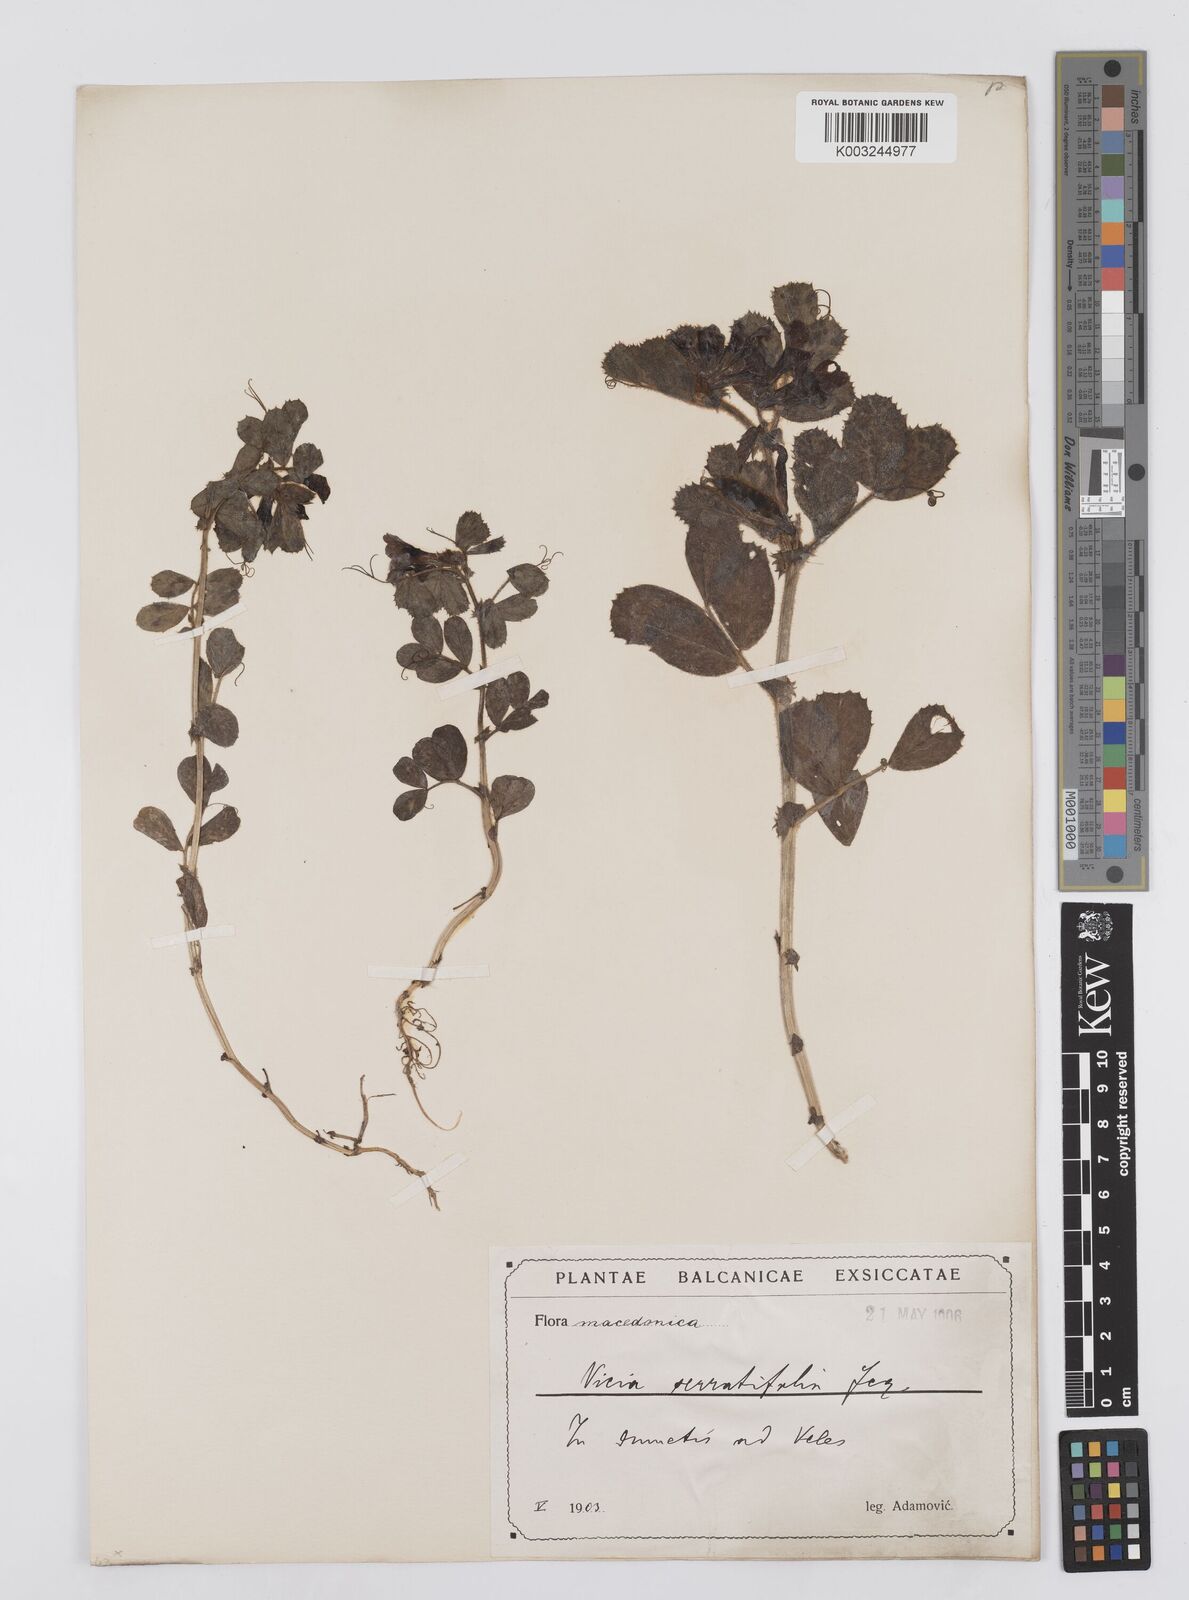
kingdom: Plantae
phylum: Tracheophyta
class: Magnoliopsida
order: Fabales
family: Fabaceae
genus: Vicia
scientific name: Vicia serratifolia
